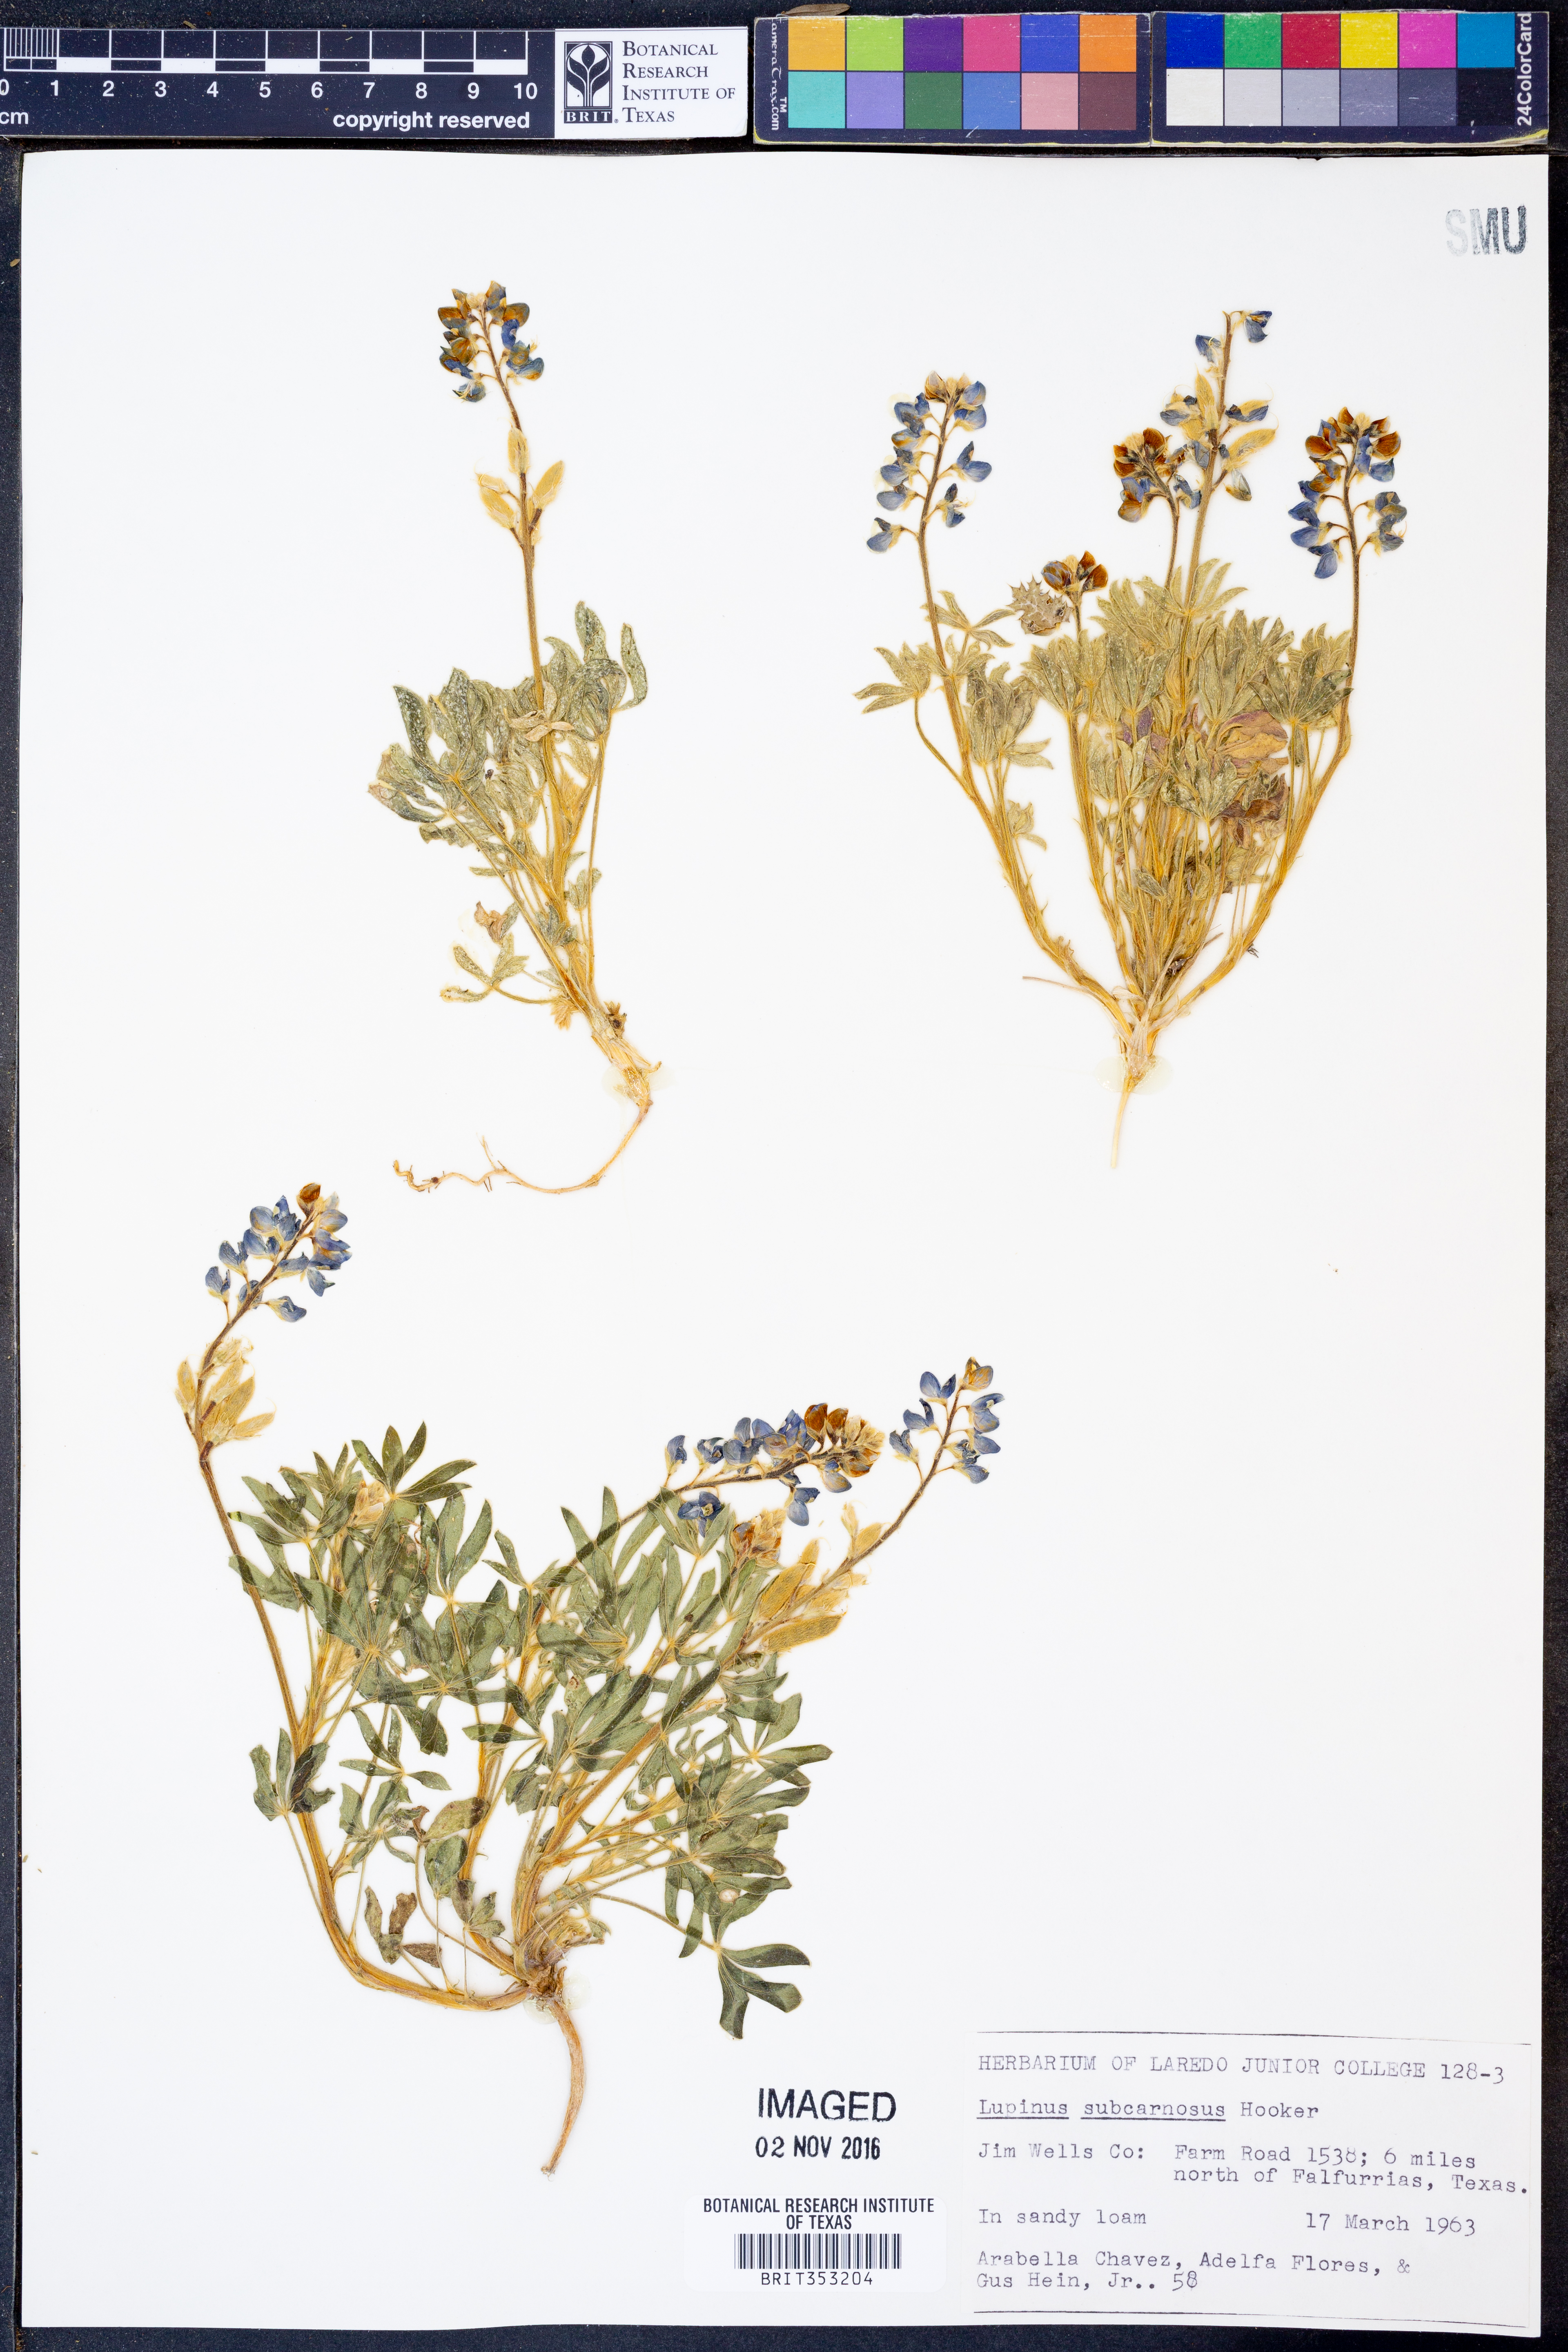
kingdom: Plantae
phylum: Tracheophyta
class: Magnoliopsida
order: Fabales
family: Fabaceae
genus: Lupinus
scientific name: Lupinus subcarnosus
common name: Texas bluebonnet
